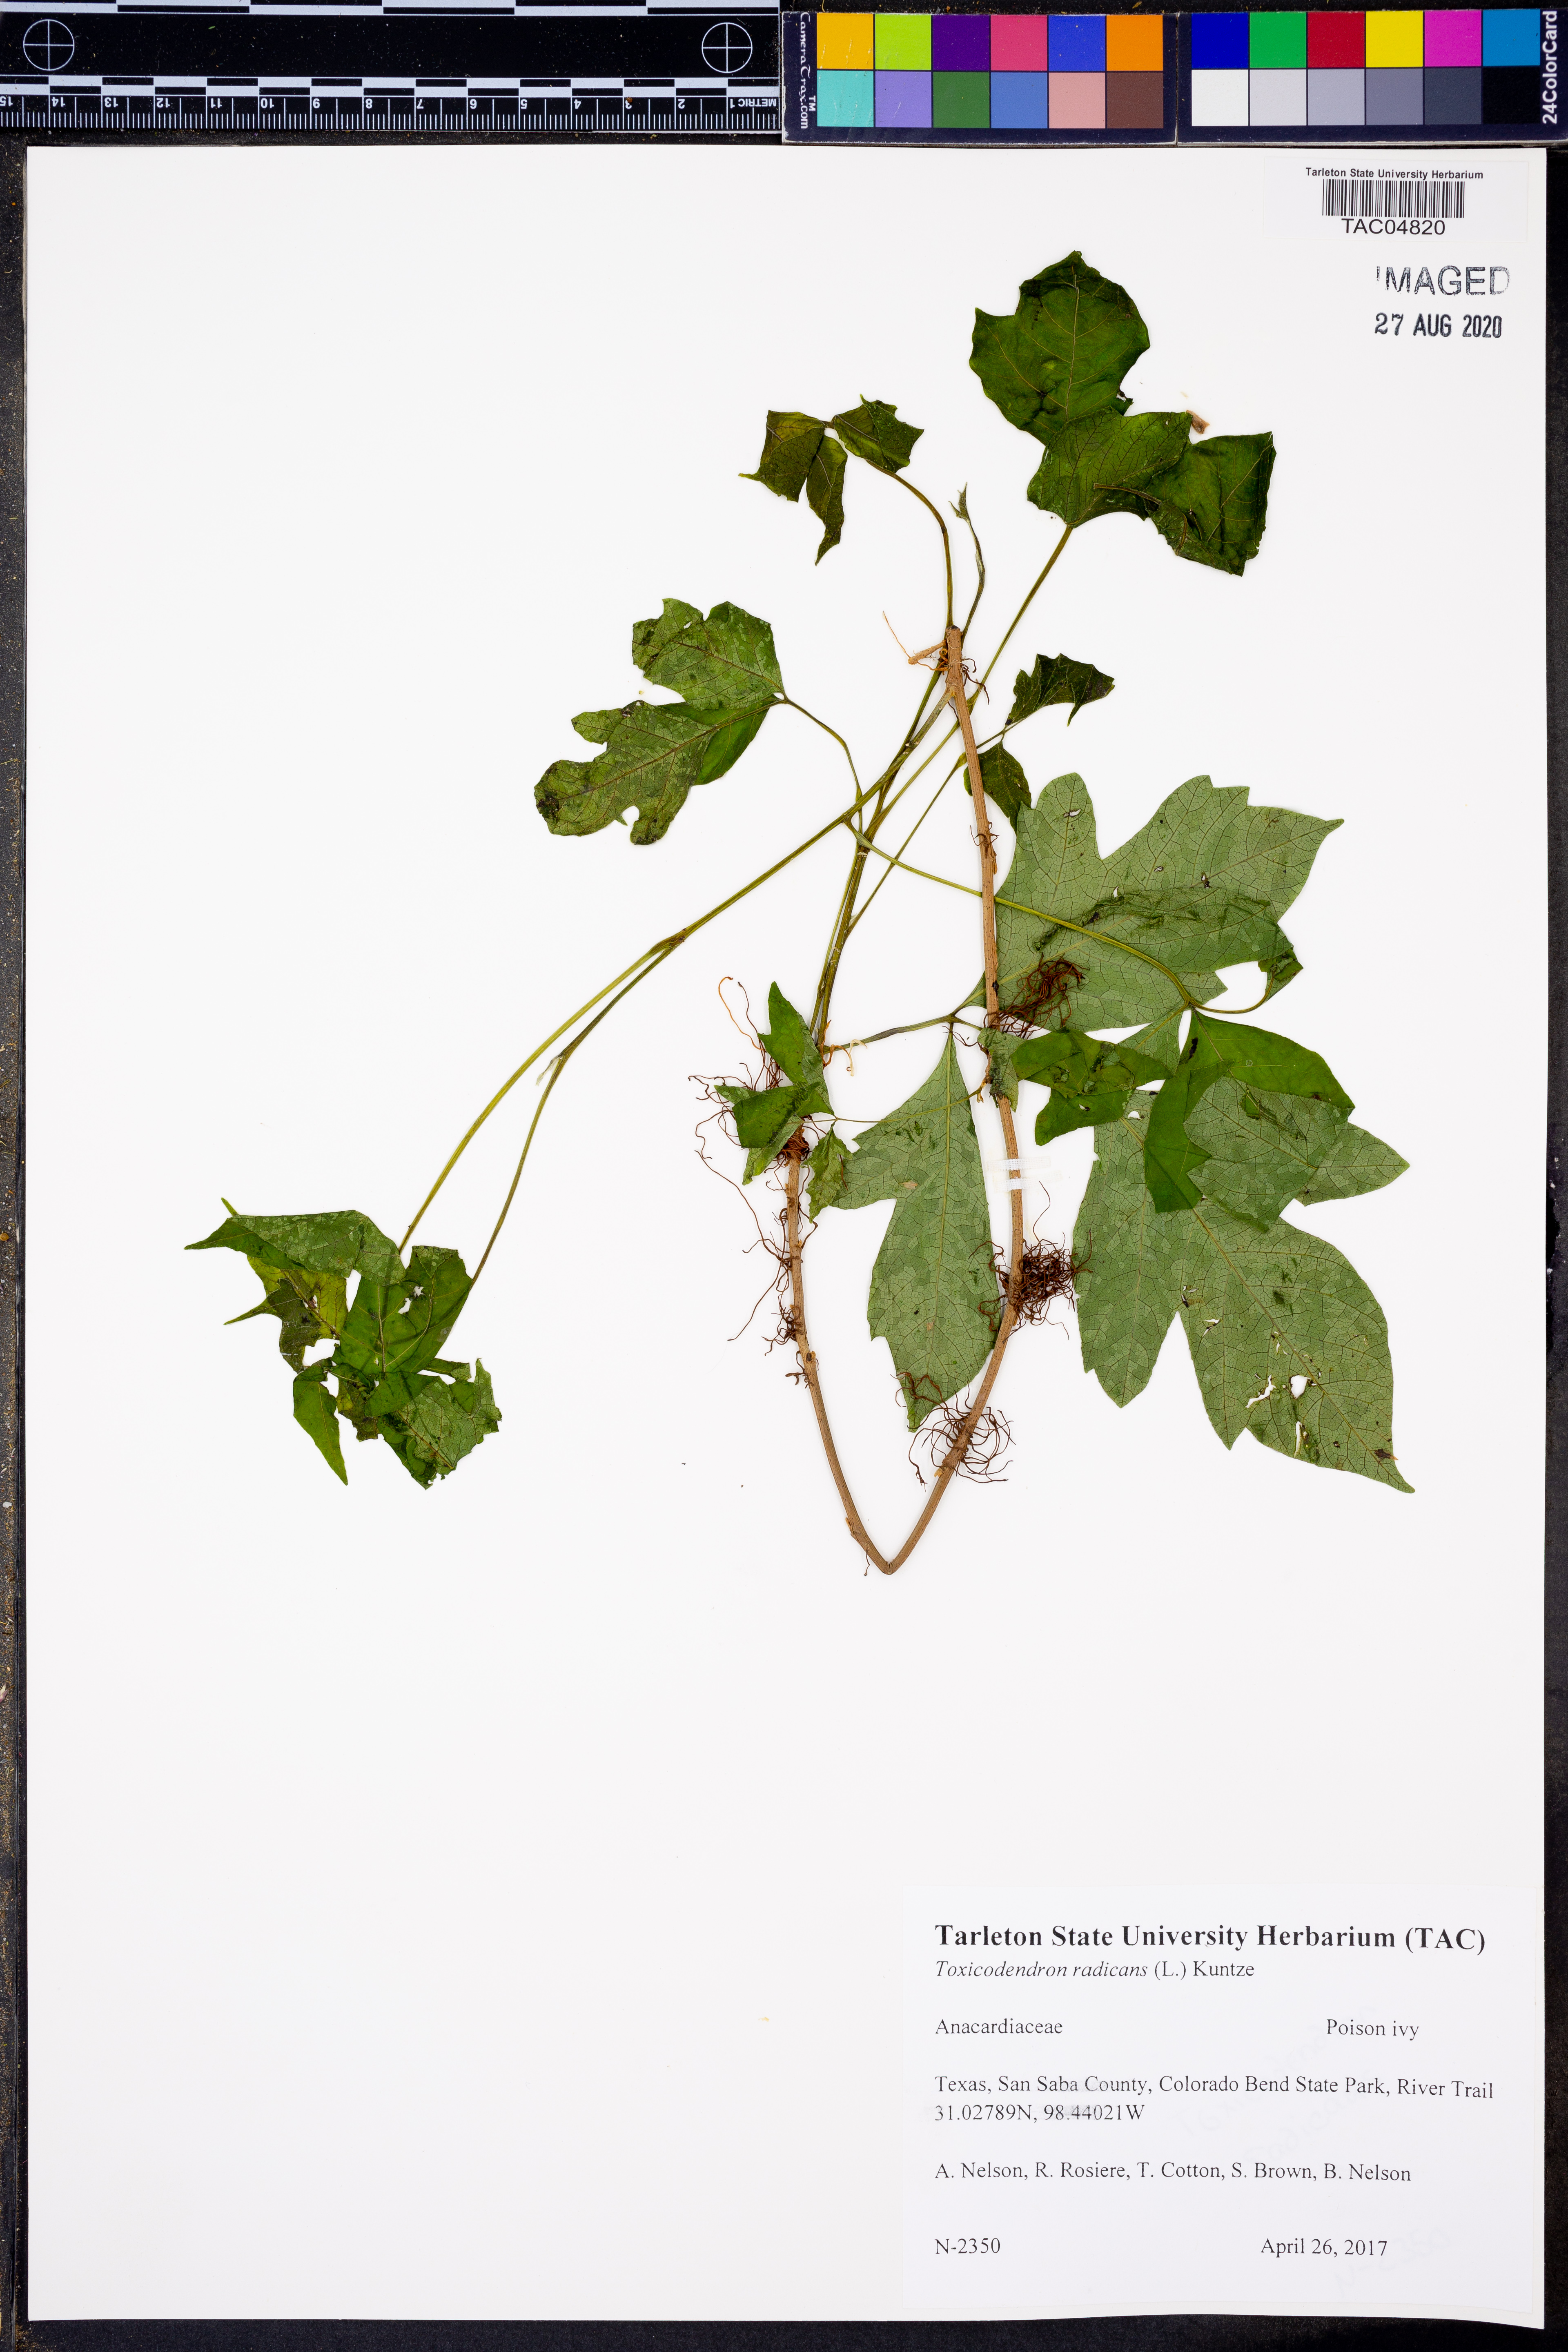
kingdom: Plantae
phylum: Tracheophyta
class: Magnoliopsida
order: Sapindales
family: Anacardiaceae
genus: Toxicodendron
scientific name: Toxicodendron radicans
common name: Poison ivy
